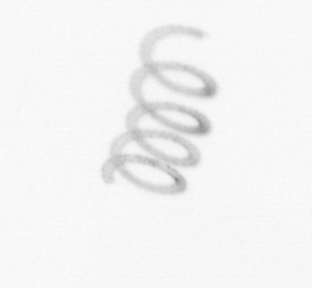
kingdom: Chromista
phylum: Ochrophyta
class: Bacillariophyceae
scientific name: Bacillariophyceae
